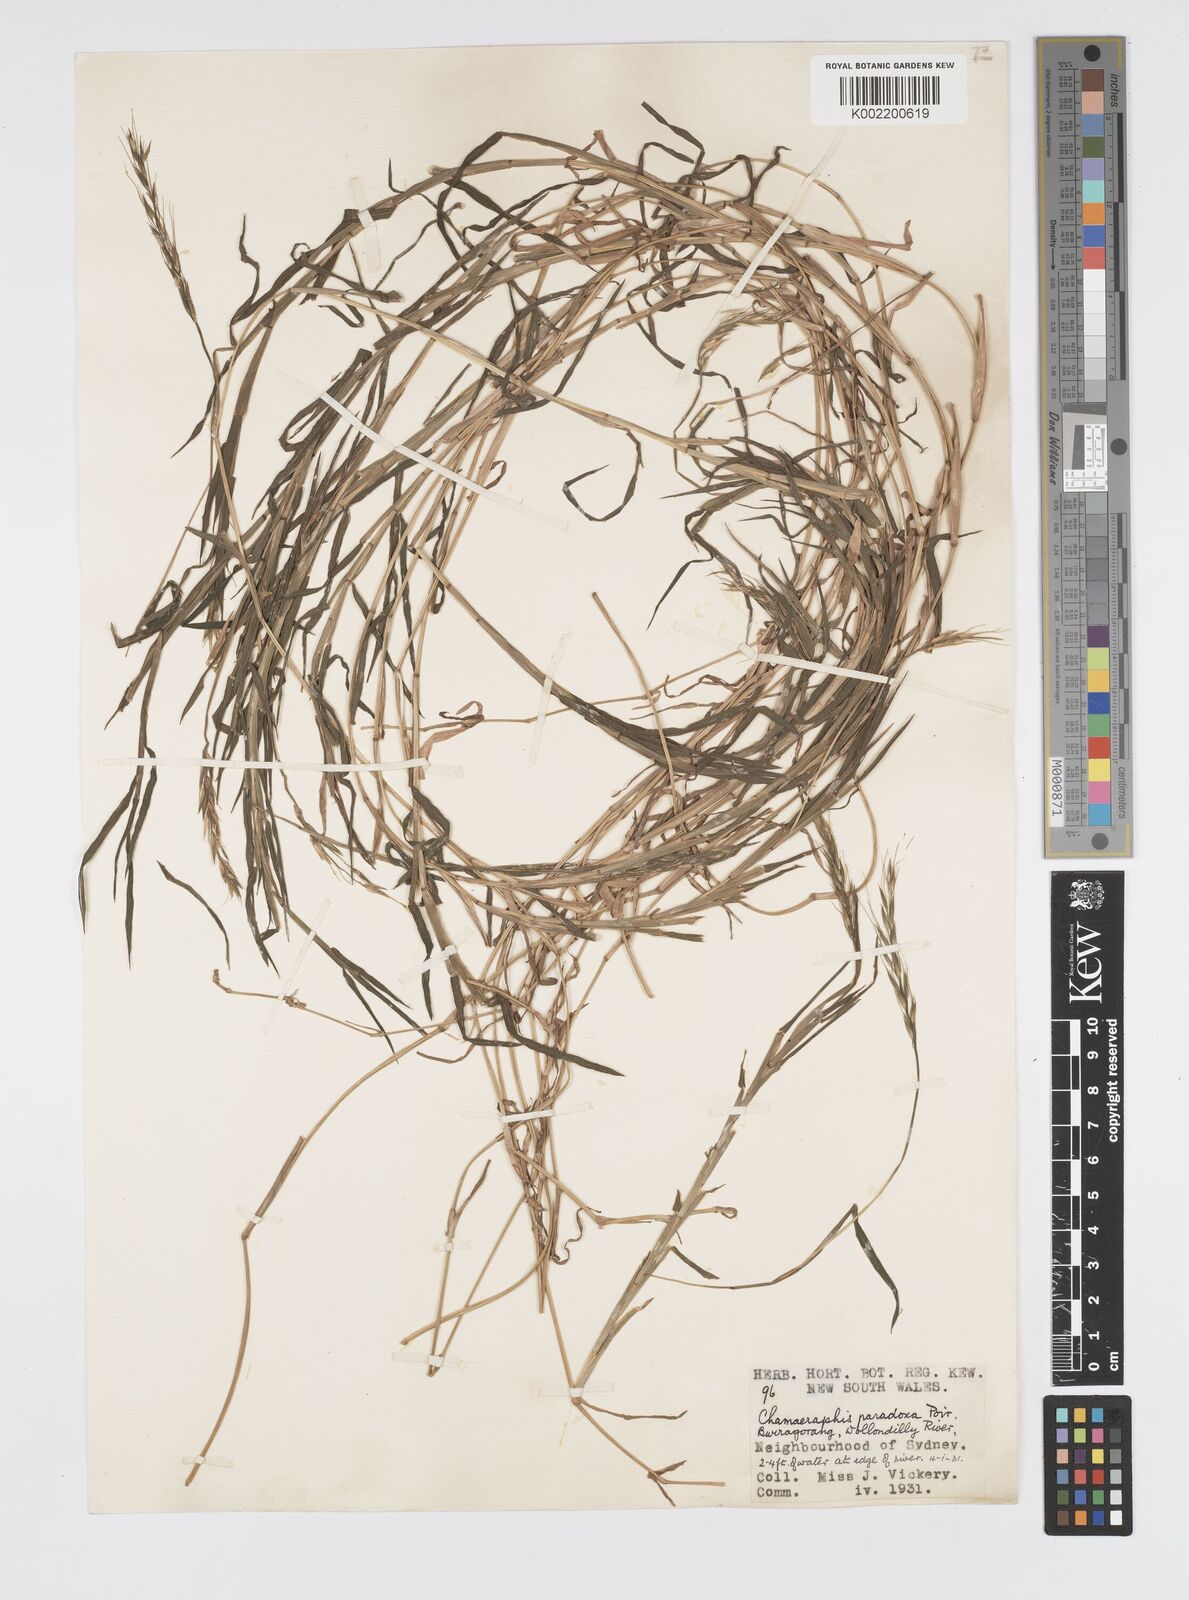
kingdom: Plantae
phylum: Tracheophyta
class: Liliopsida
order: Poales
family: Poaceae
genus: Pseudoraphis
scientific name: Pseudoraphis paradoxa
